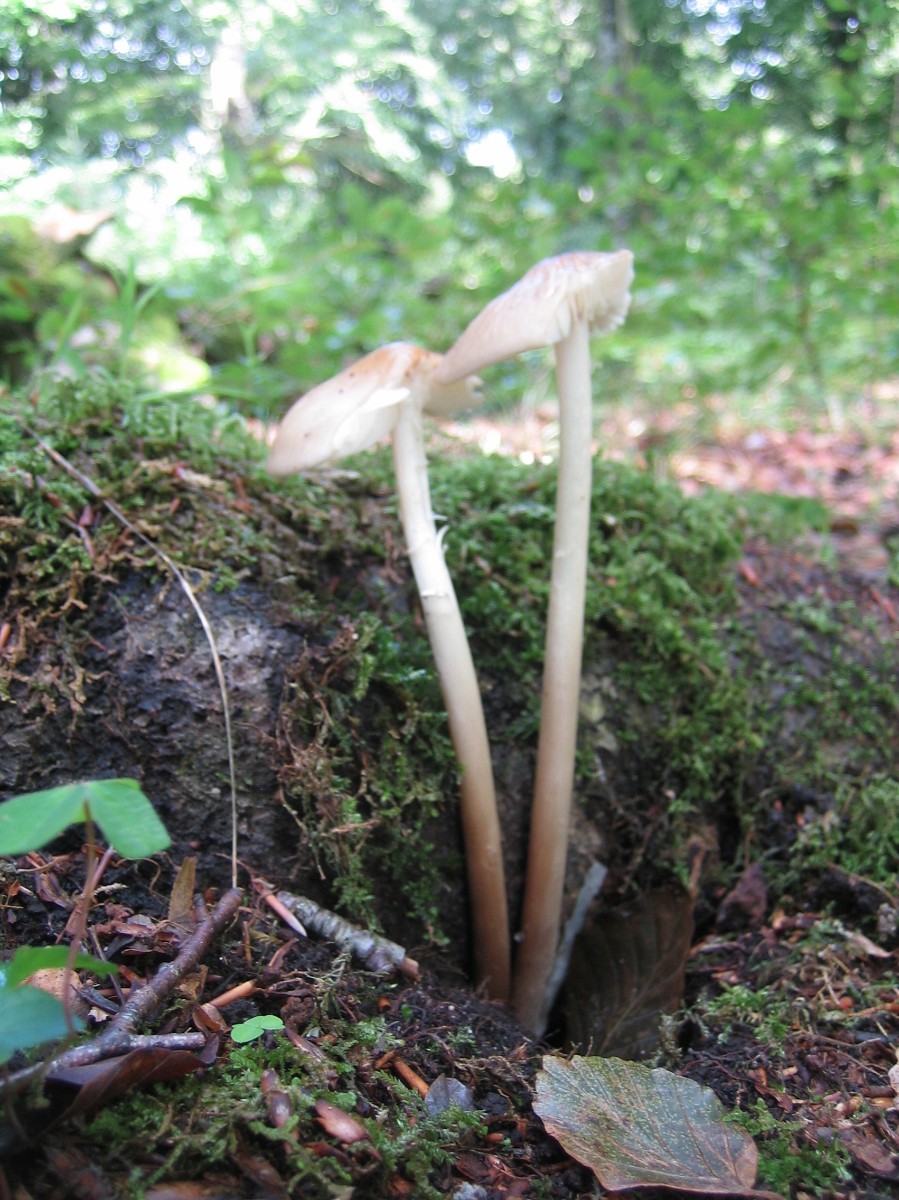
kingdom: Fungi
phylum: Basidiomycota
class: Agaricomycetes
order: Agaricales
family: Physalacriaceae
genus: Hymenopellis
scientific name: Hymenopellis radicata
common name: almindelig pælerodshat
